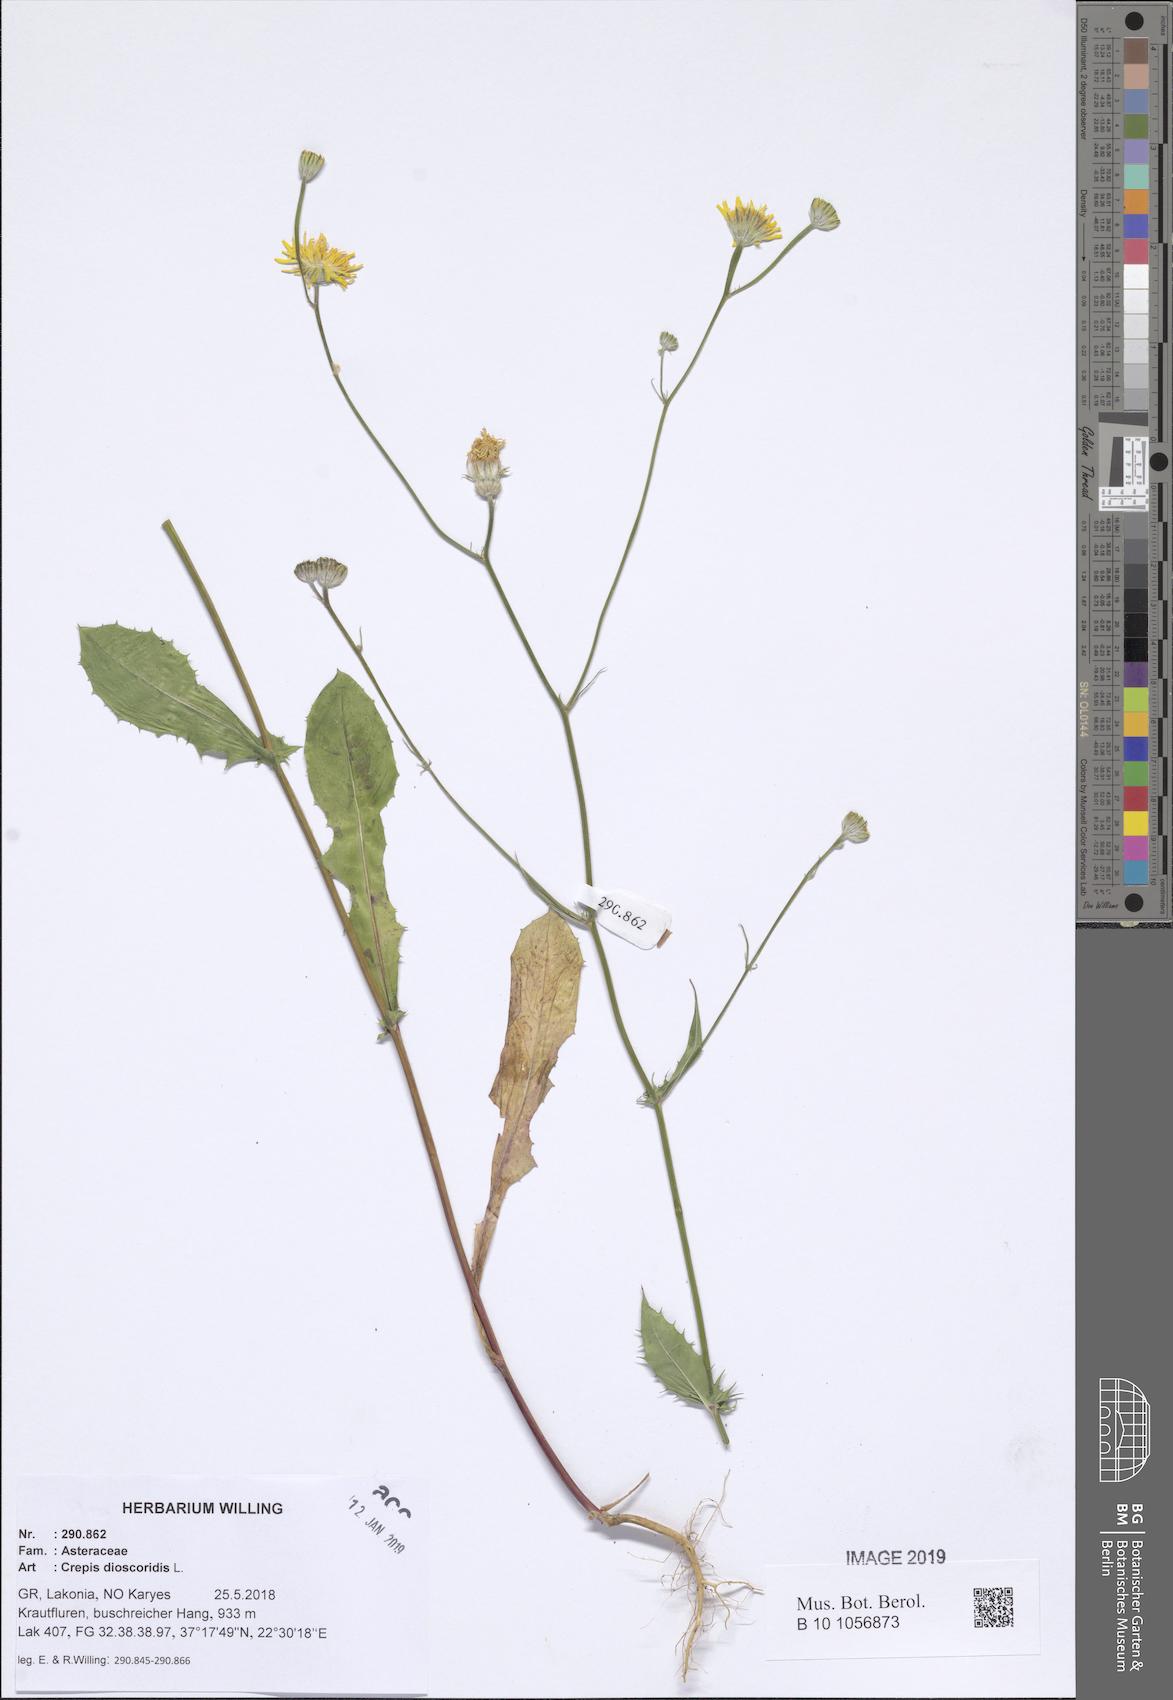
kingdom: Plantae
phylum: Tracheophyta
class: Magnoliopsida
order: Asterales
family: Asteraceae
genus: Crepis
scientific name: Crepis dioscoridis
